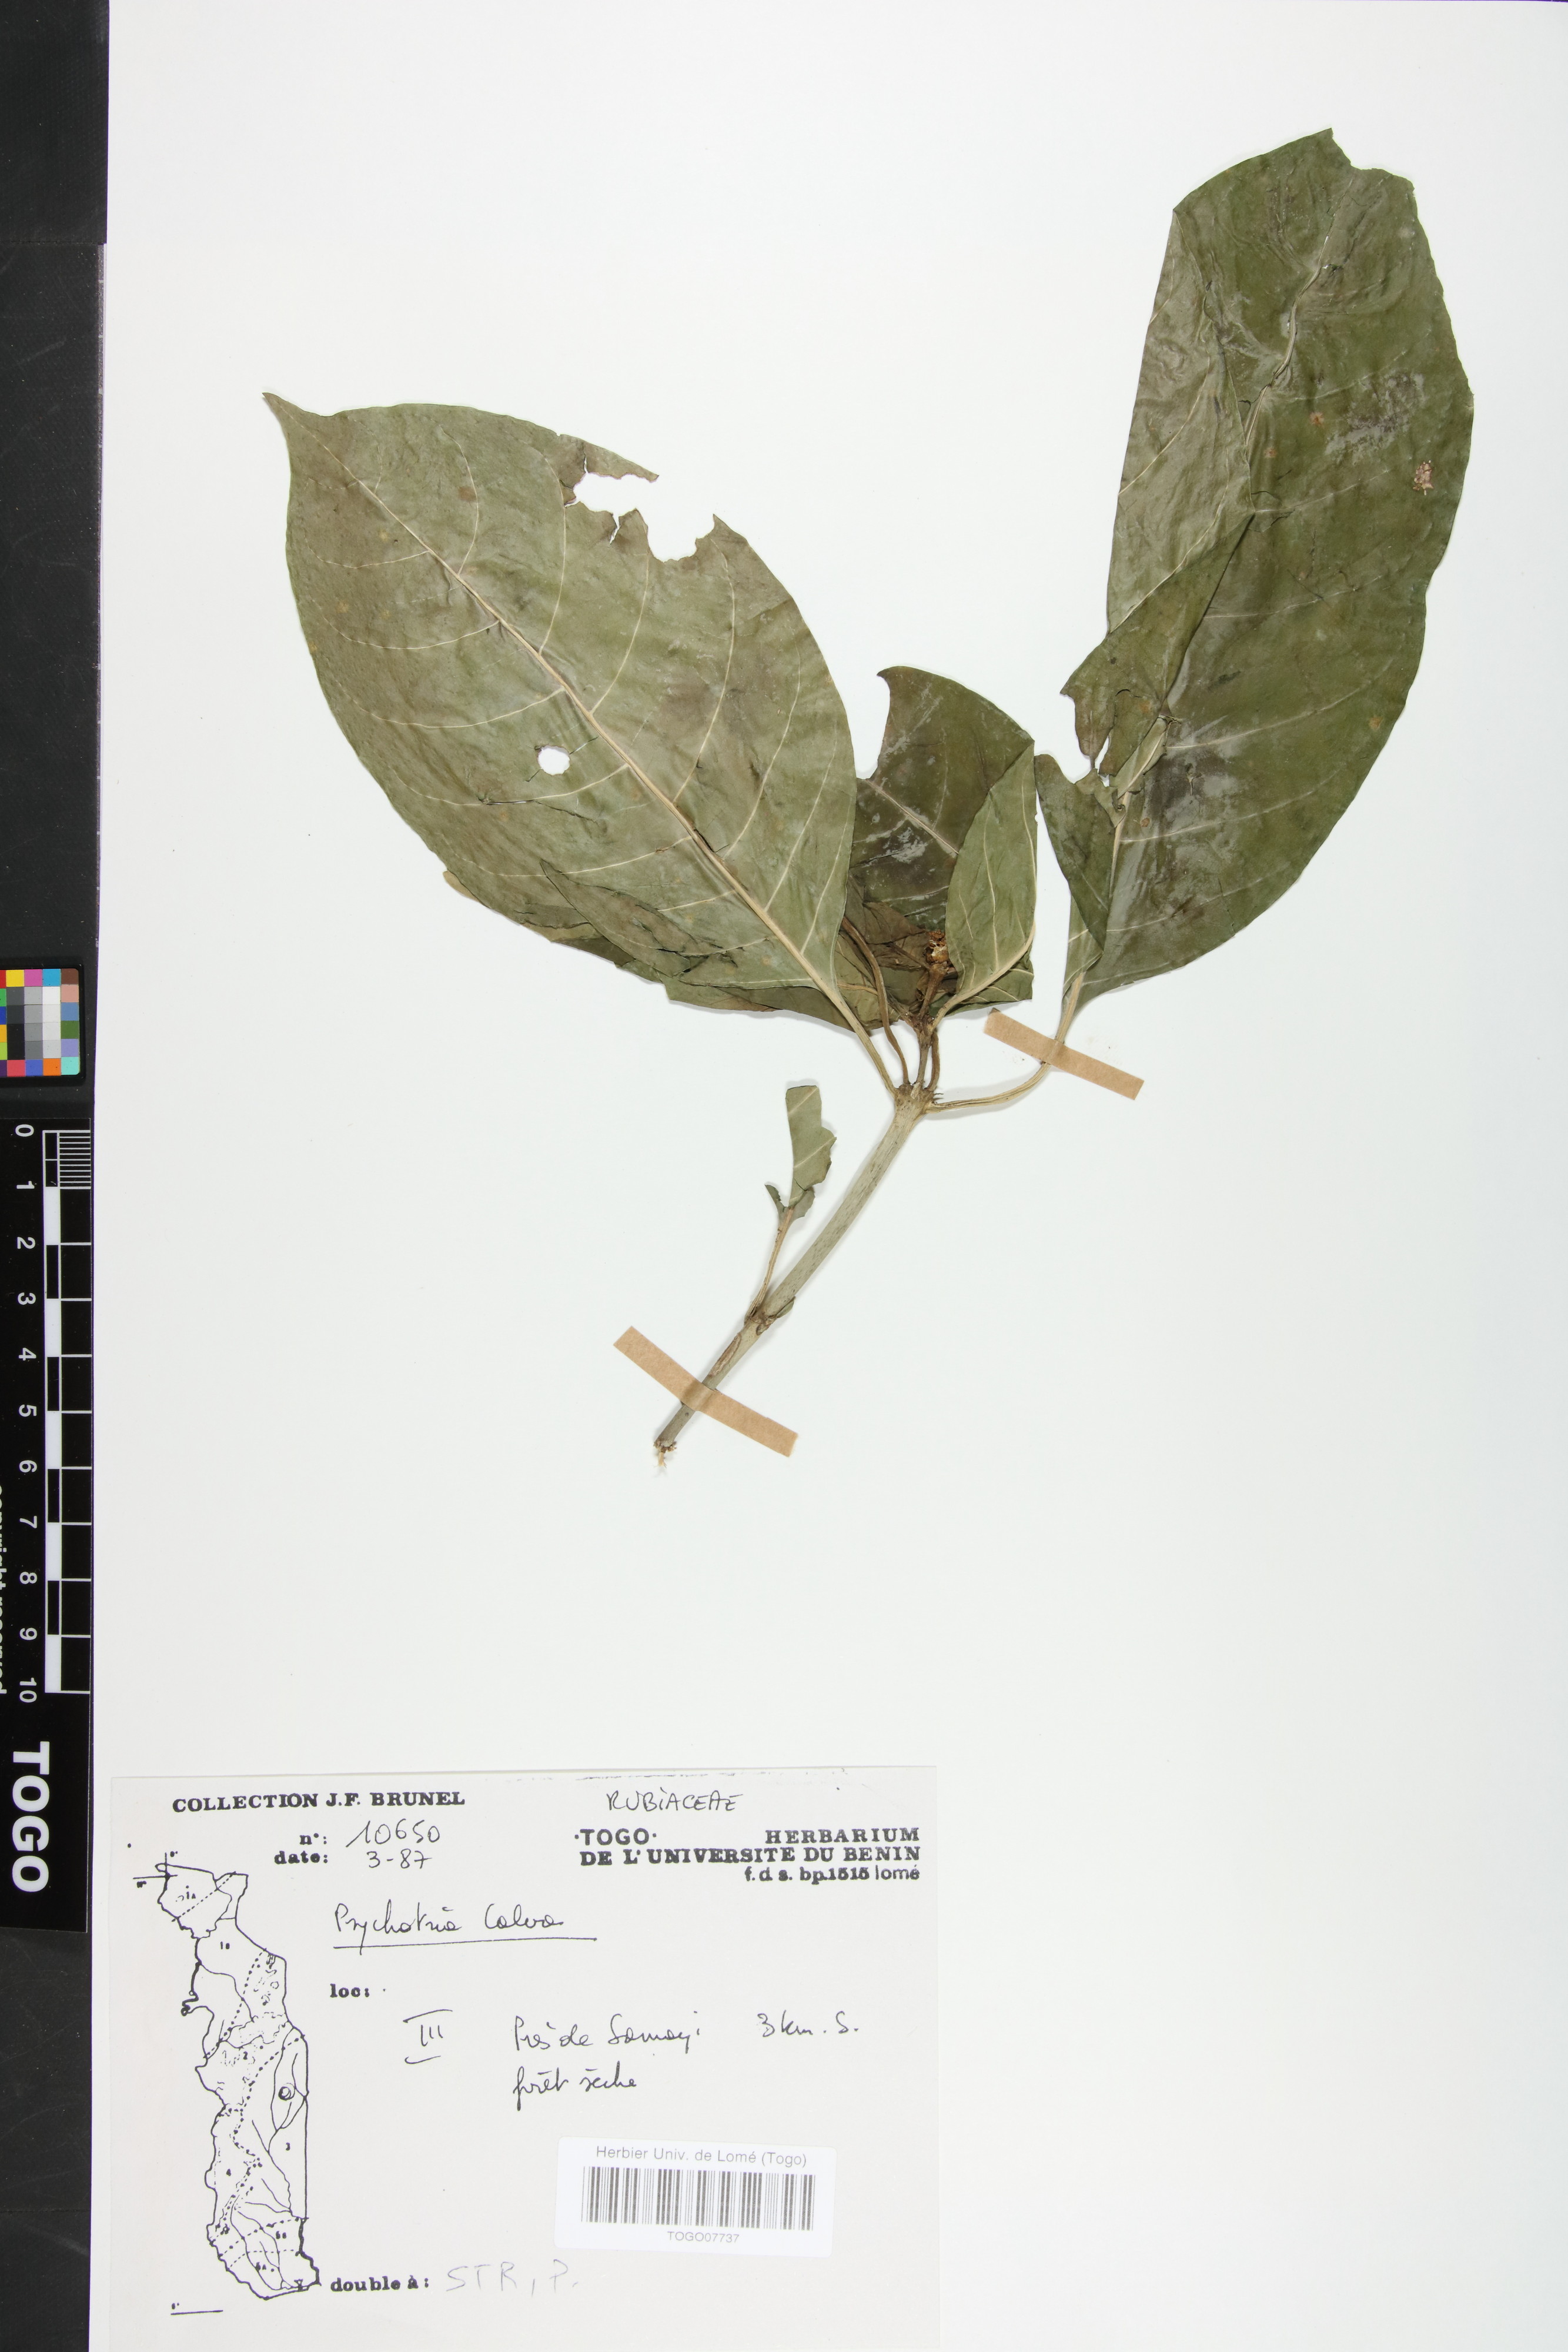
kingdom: Plantae
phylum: Tracheophyta
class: Magnoliopsida
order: Gentianales
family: Rubiaceae
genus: Psychotria
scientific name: Psychotria calva
